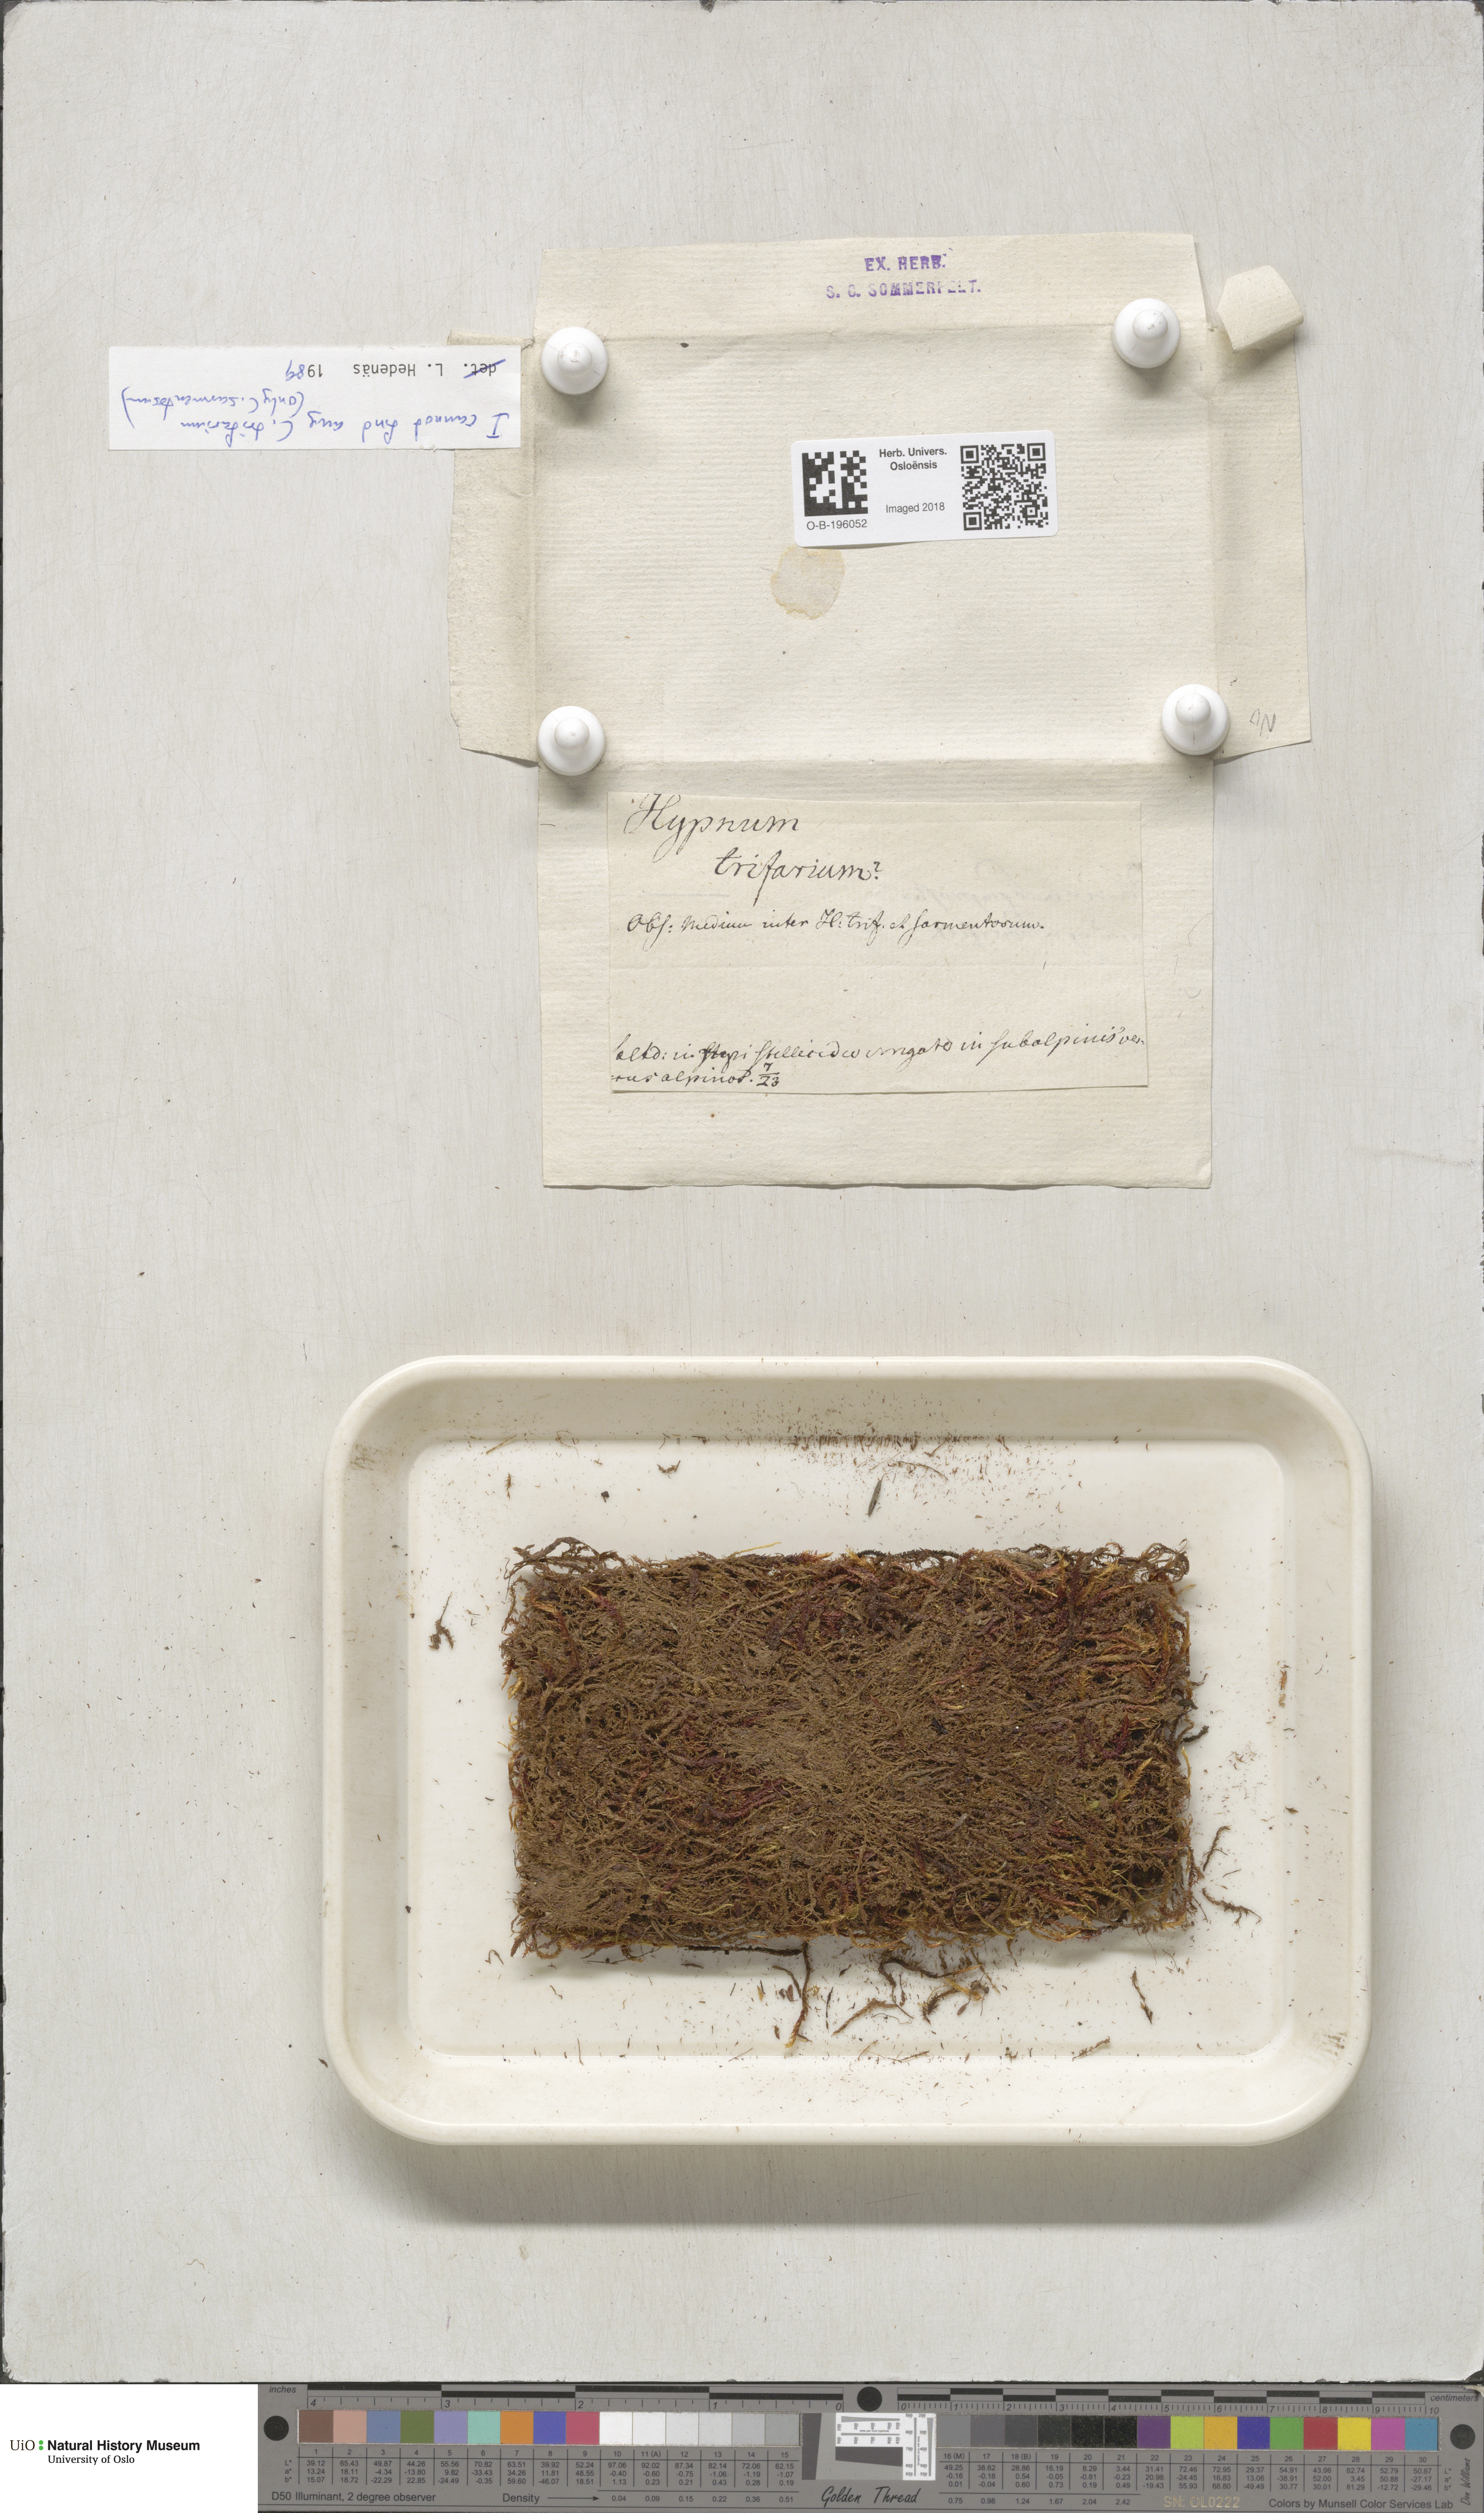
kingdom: Plantae
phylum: Bryophyta
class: Bryopsida
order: Hypnales
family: Calliergonaceae
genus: Sarmentypnum
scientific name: Sarmentypnum sarmentosum
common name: Twiggy spoon moss
